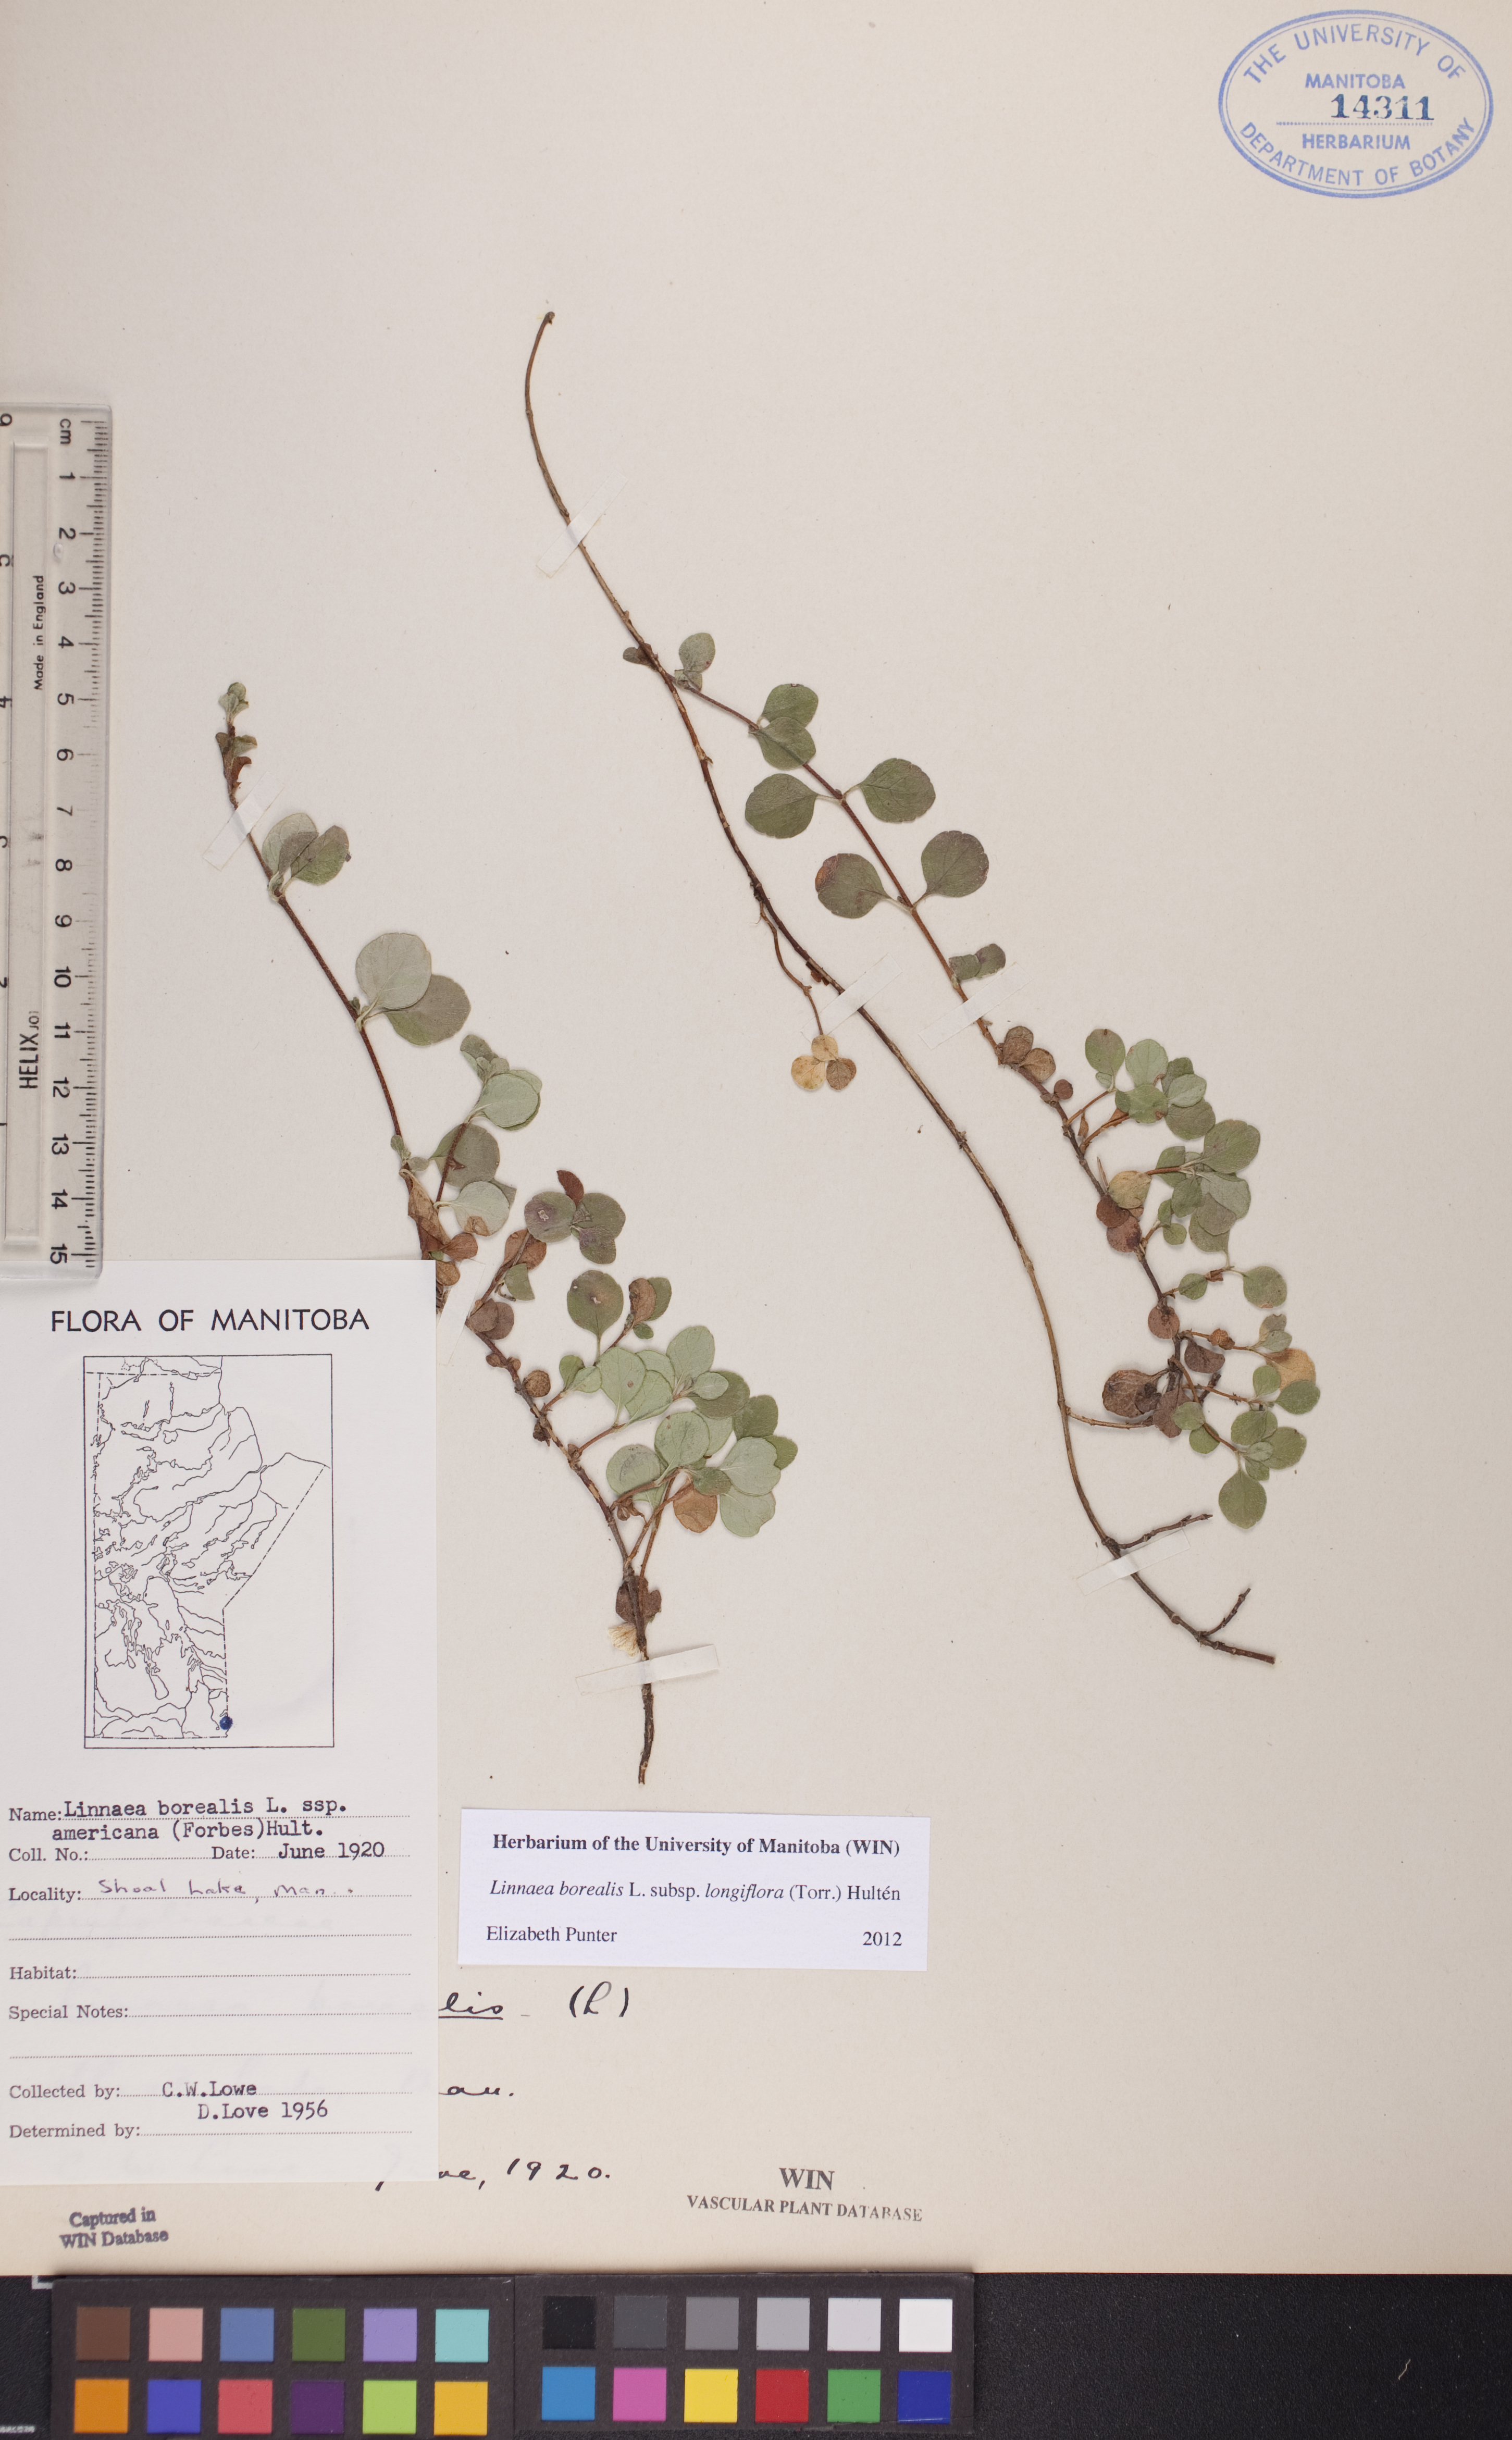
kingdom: Plantae
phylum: Tracheophyta
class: Magnoliopsida
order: Dipsacales
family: Caprifoliaceae
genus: Linnaea
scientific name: Linnaea borealis
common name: Twinflower
